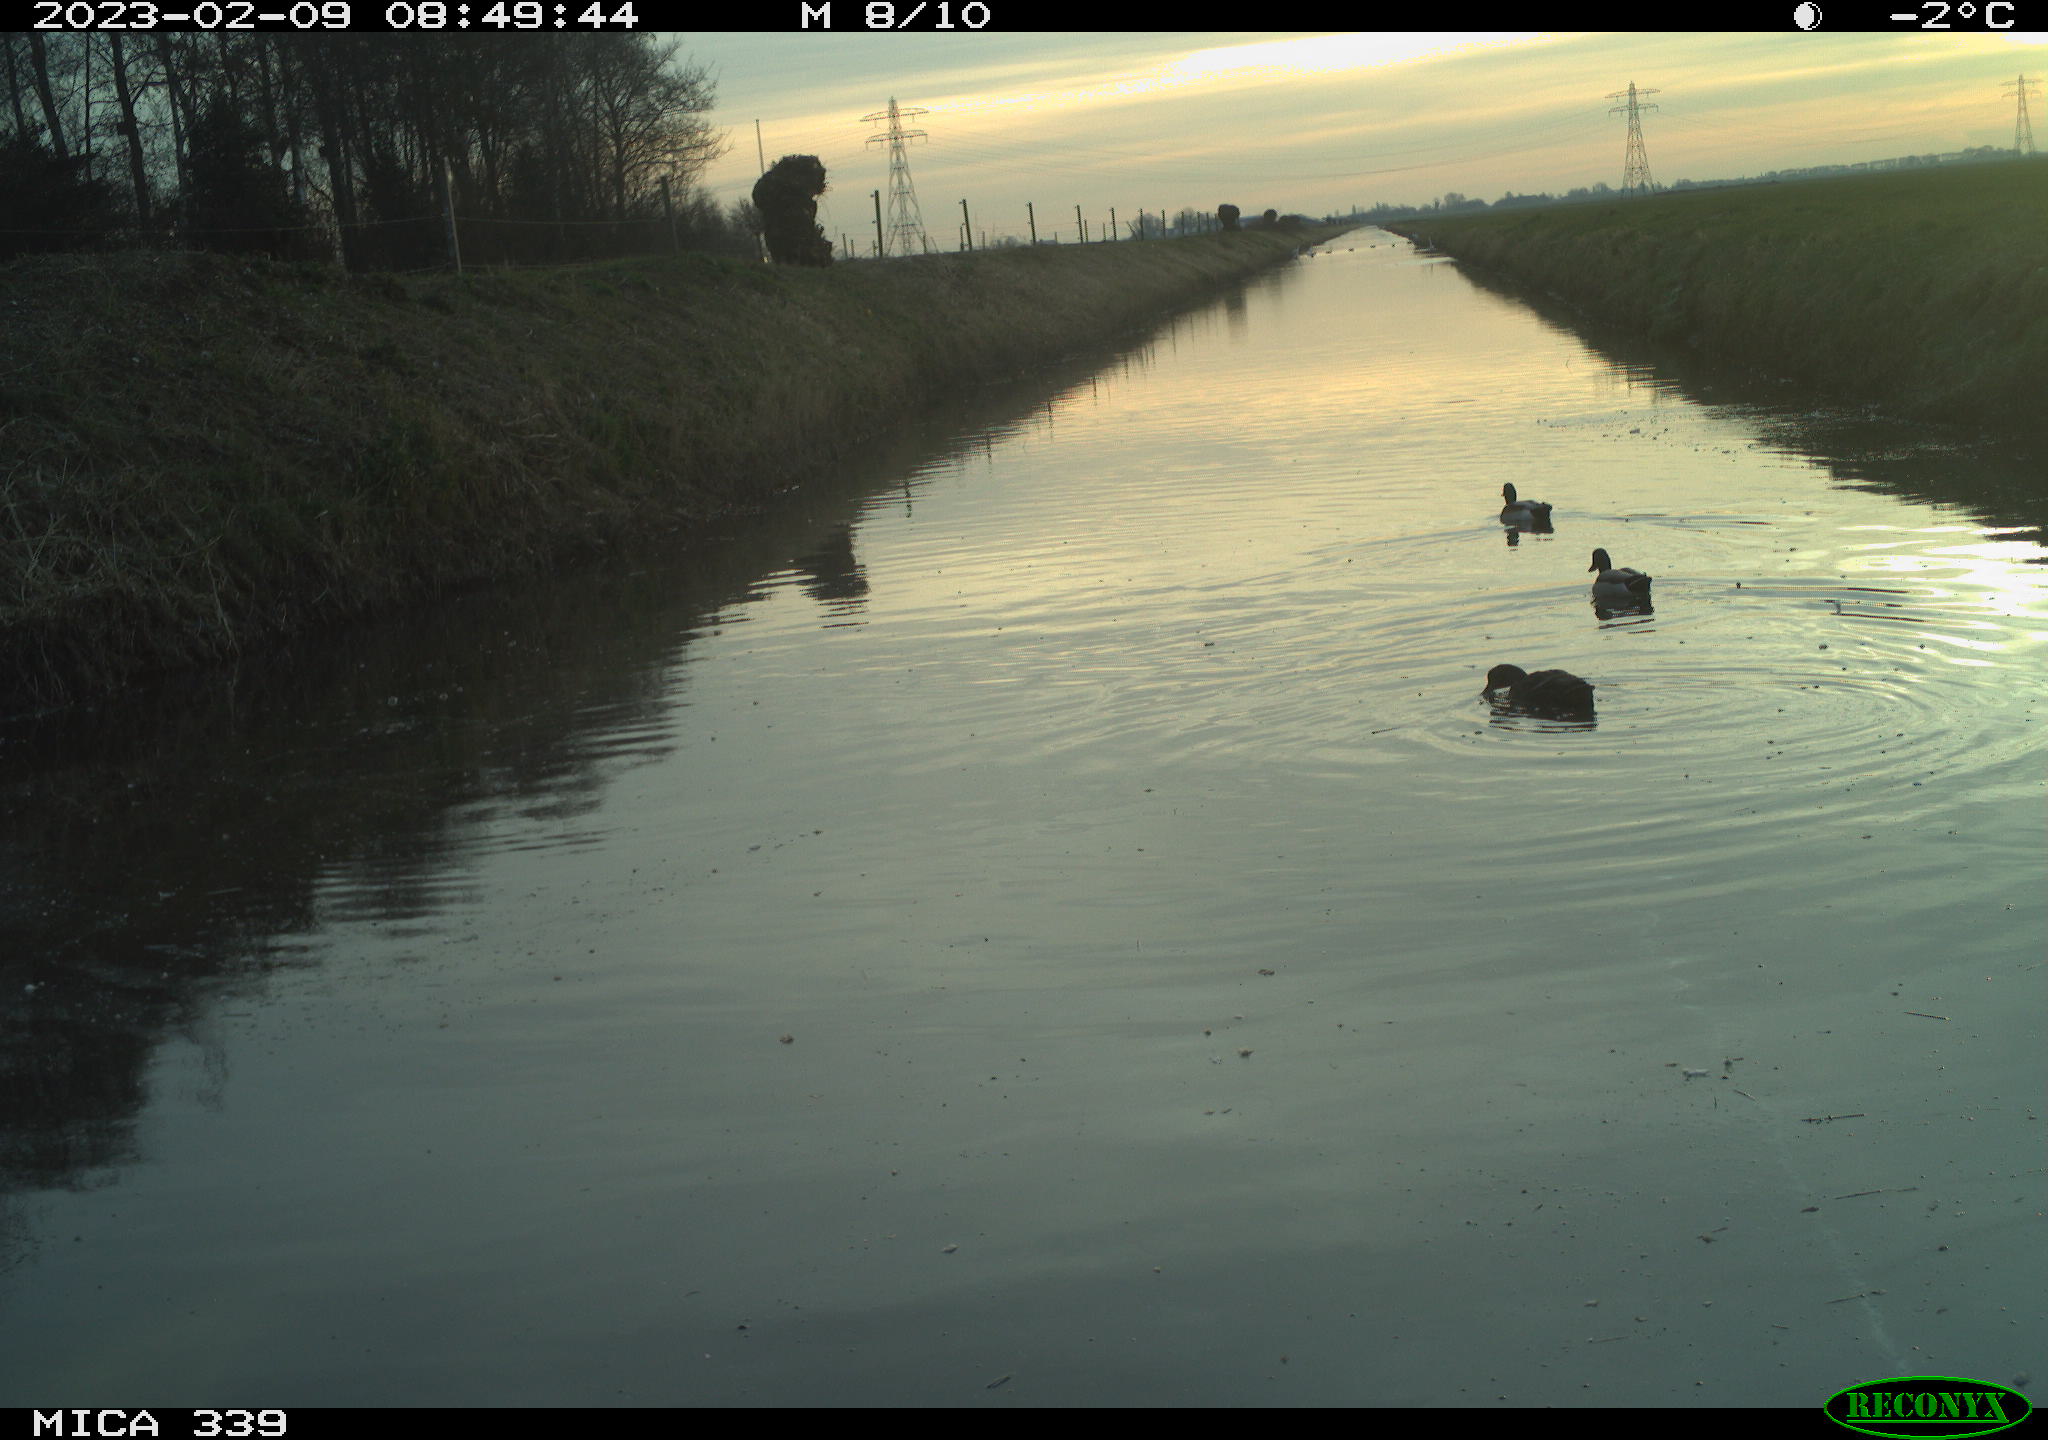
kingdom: Animalia
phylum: Chordata
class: Aves
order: Anseriformes
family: Anatidae
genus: Anas
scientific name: Anas
